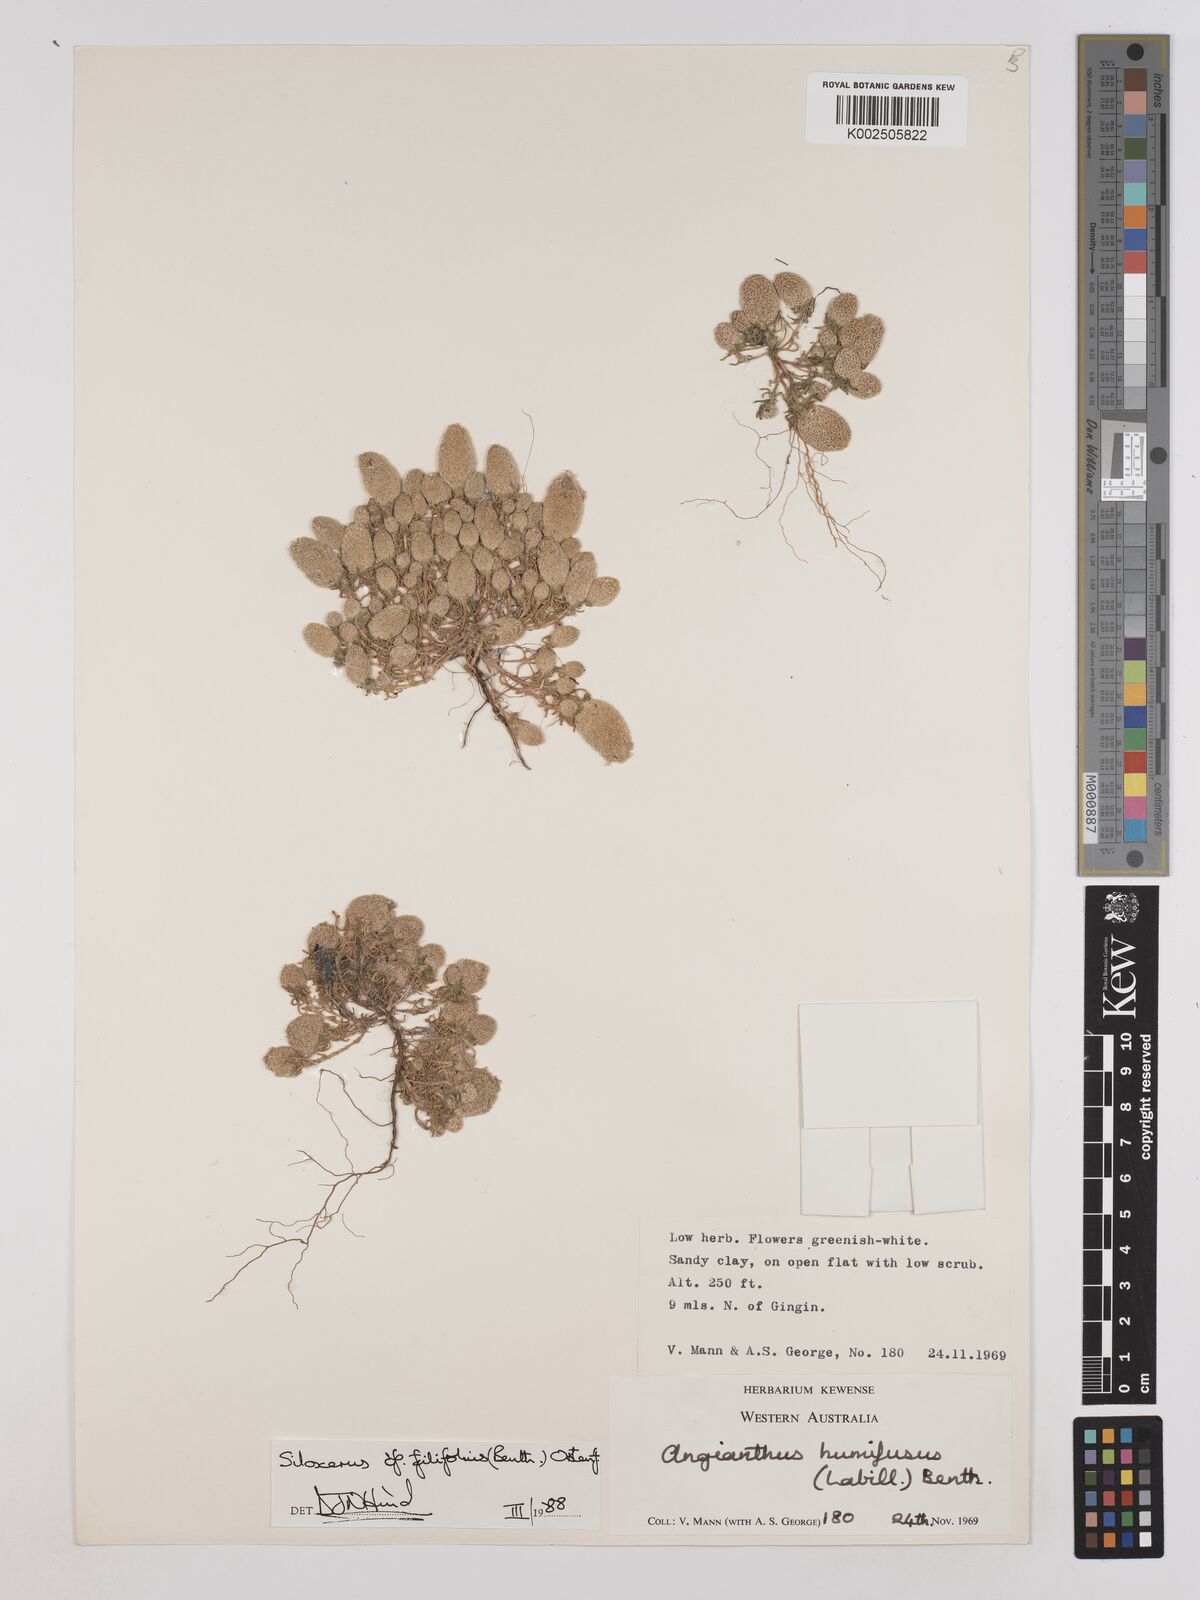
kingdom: Plantae
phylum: Tracheophyta
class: Magnoliopsida
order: Asterales
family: Asteraceae
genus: Siloxerus
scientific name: Siloxerus filifolius
